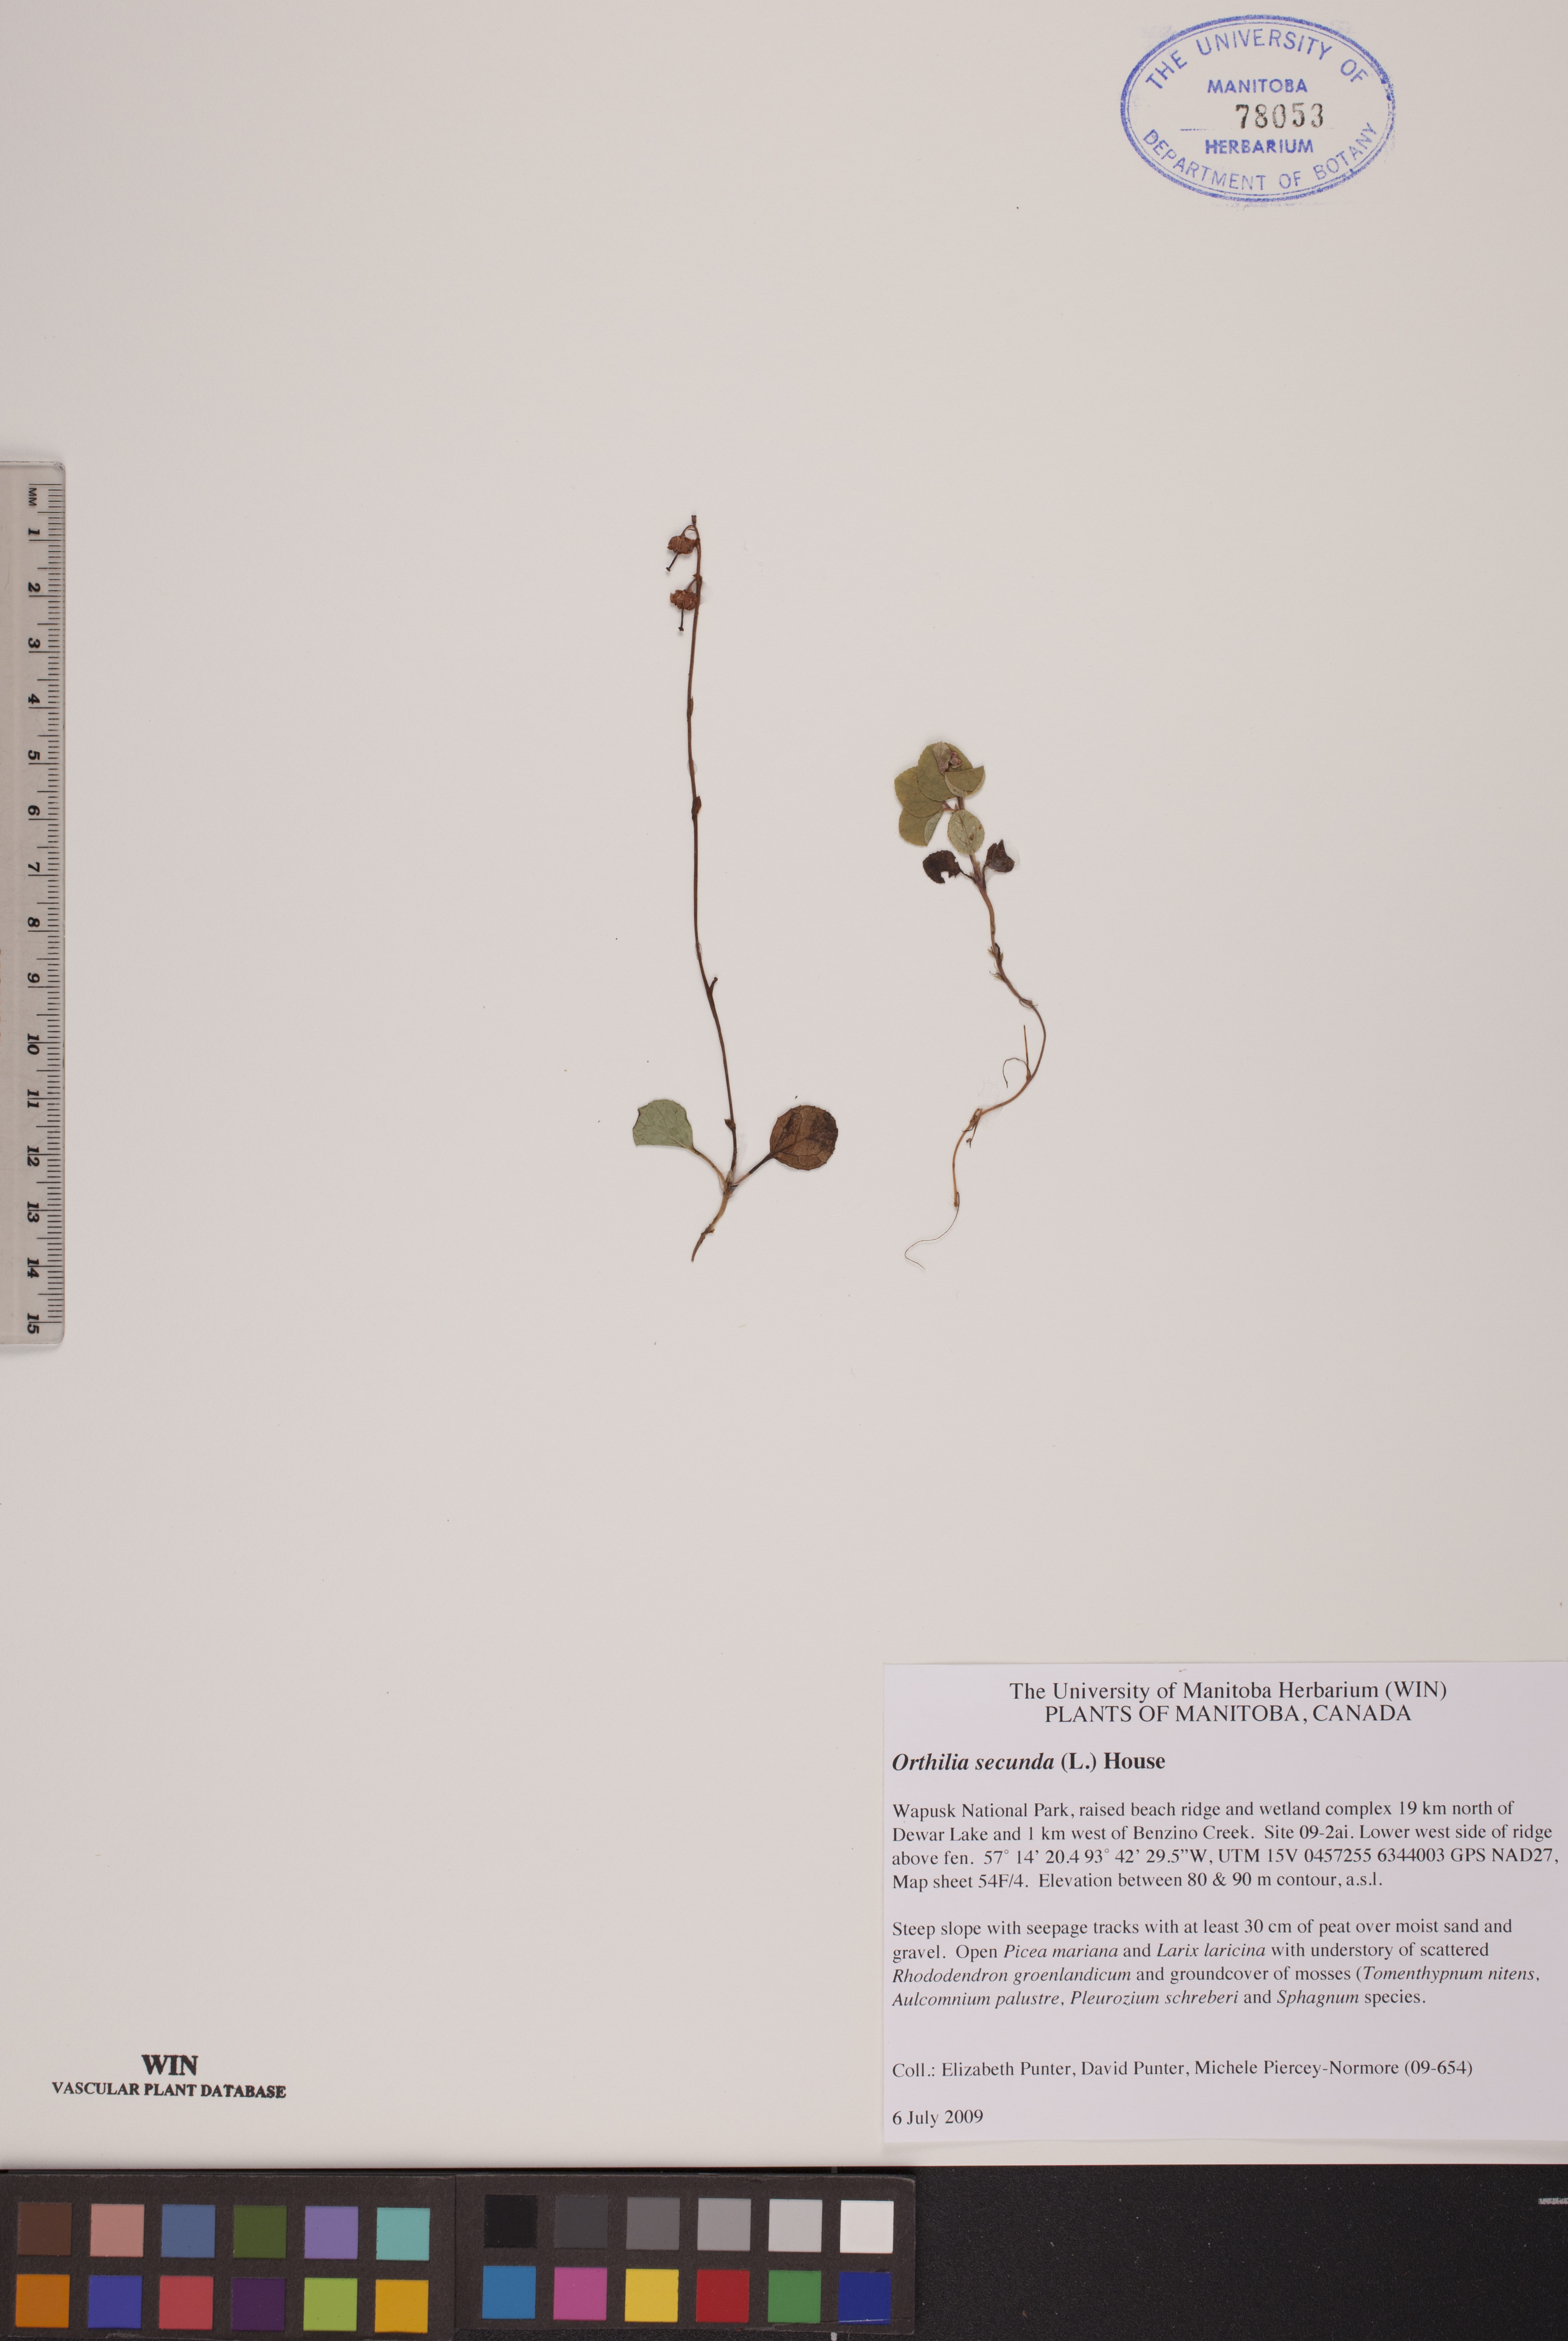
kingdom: Plantae
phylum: Tracheophyta
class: Magnoliopsida
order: Ericales
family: Ericaceae
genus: Orthilia
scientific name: Orthilia secunda
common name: One-sided orthilia
